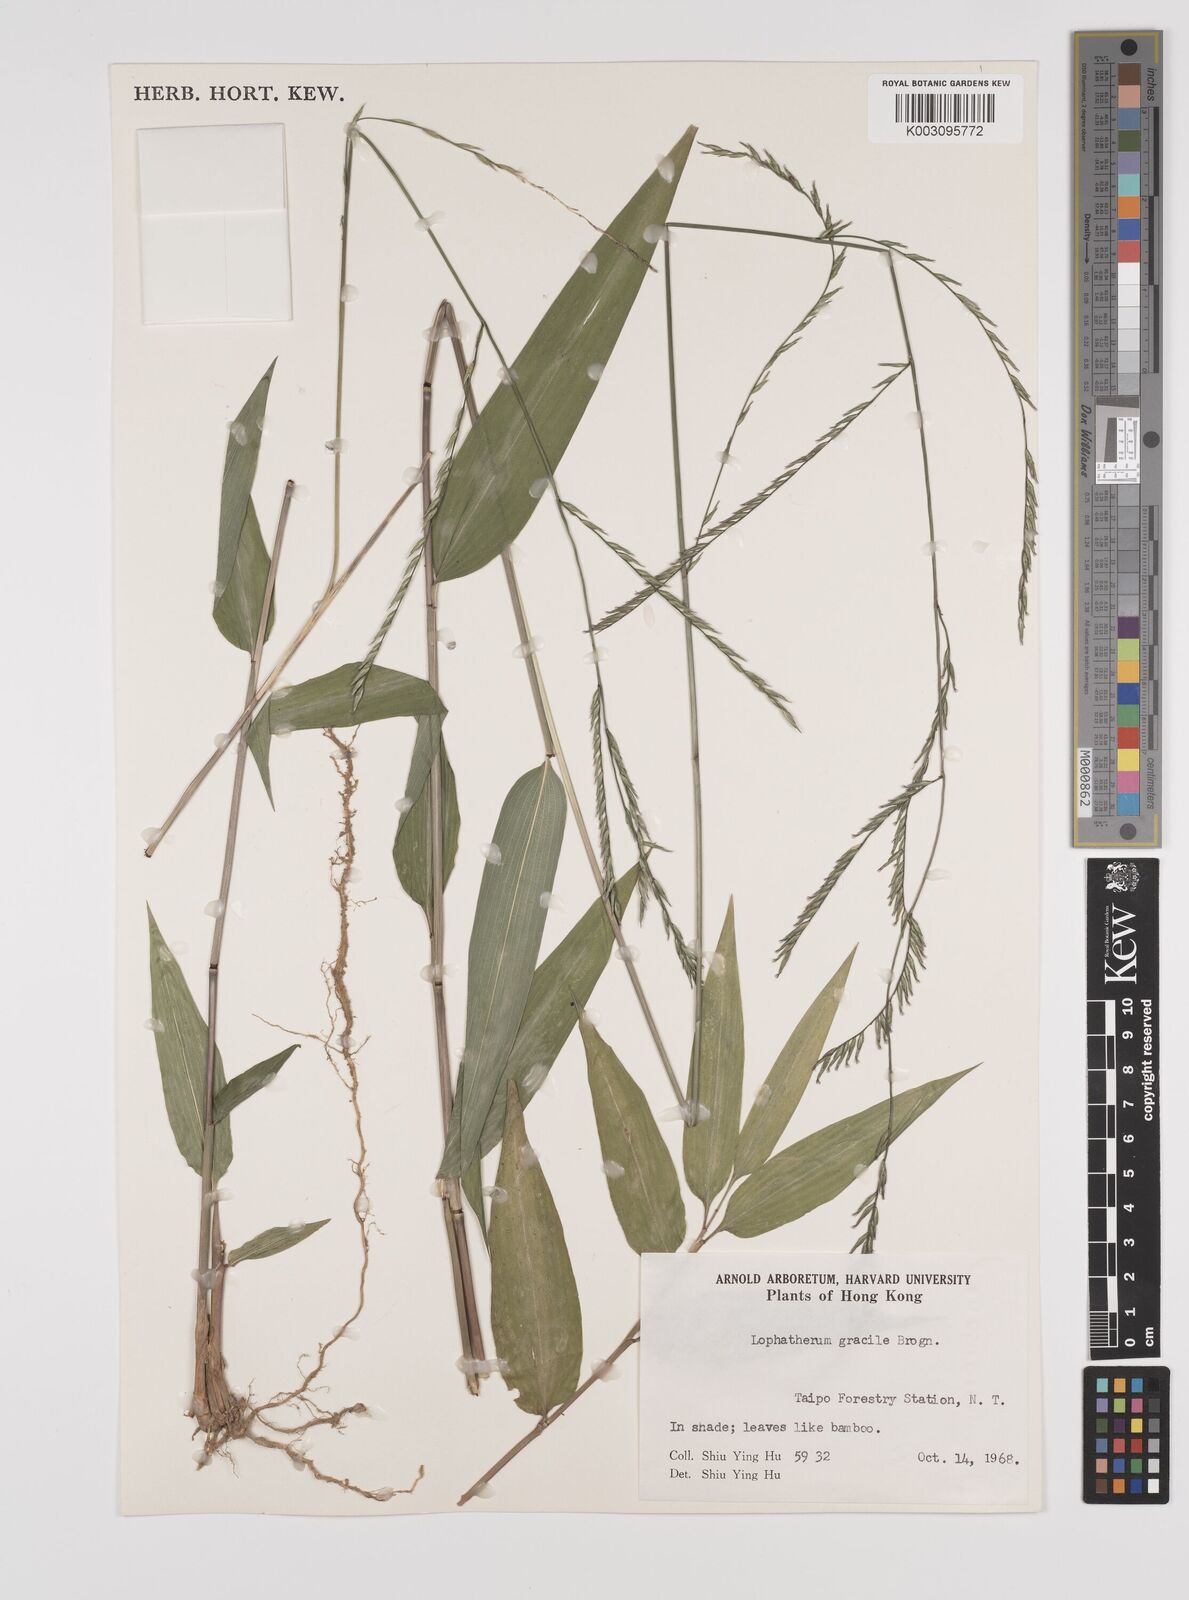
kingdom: Plantae
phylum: Tracheophyta
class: Liliopsida
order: Poales
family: Poaceae
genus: Lophatherum
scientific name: Lophatherum gracile
